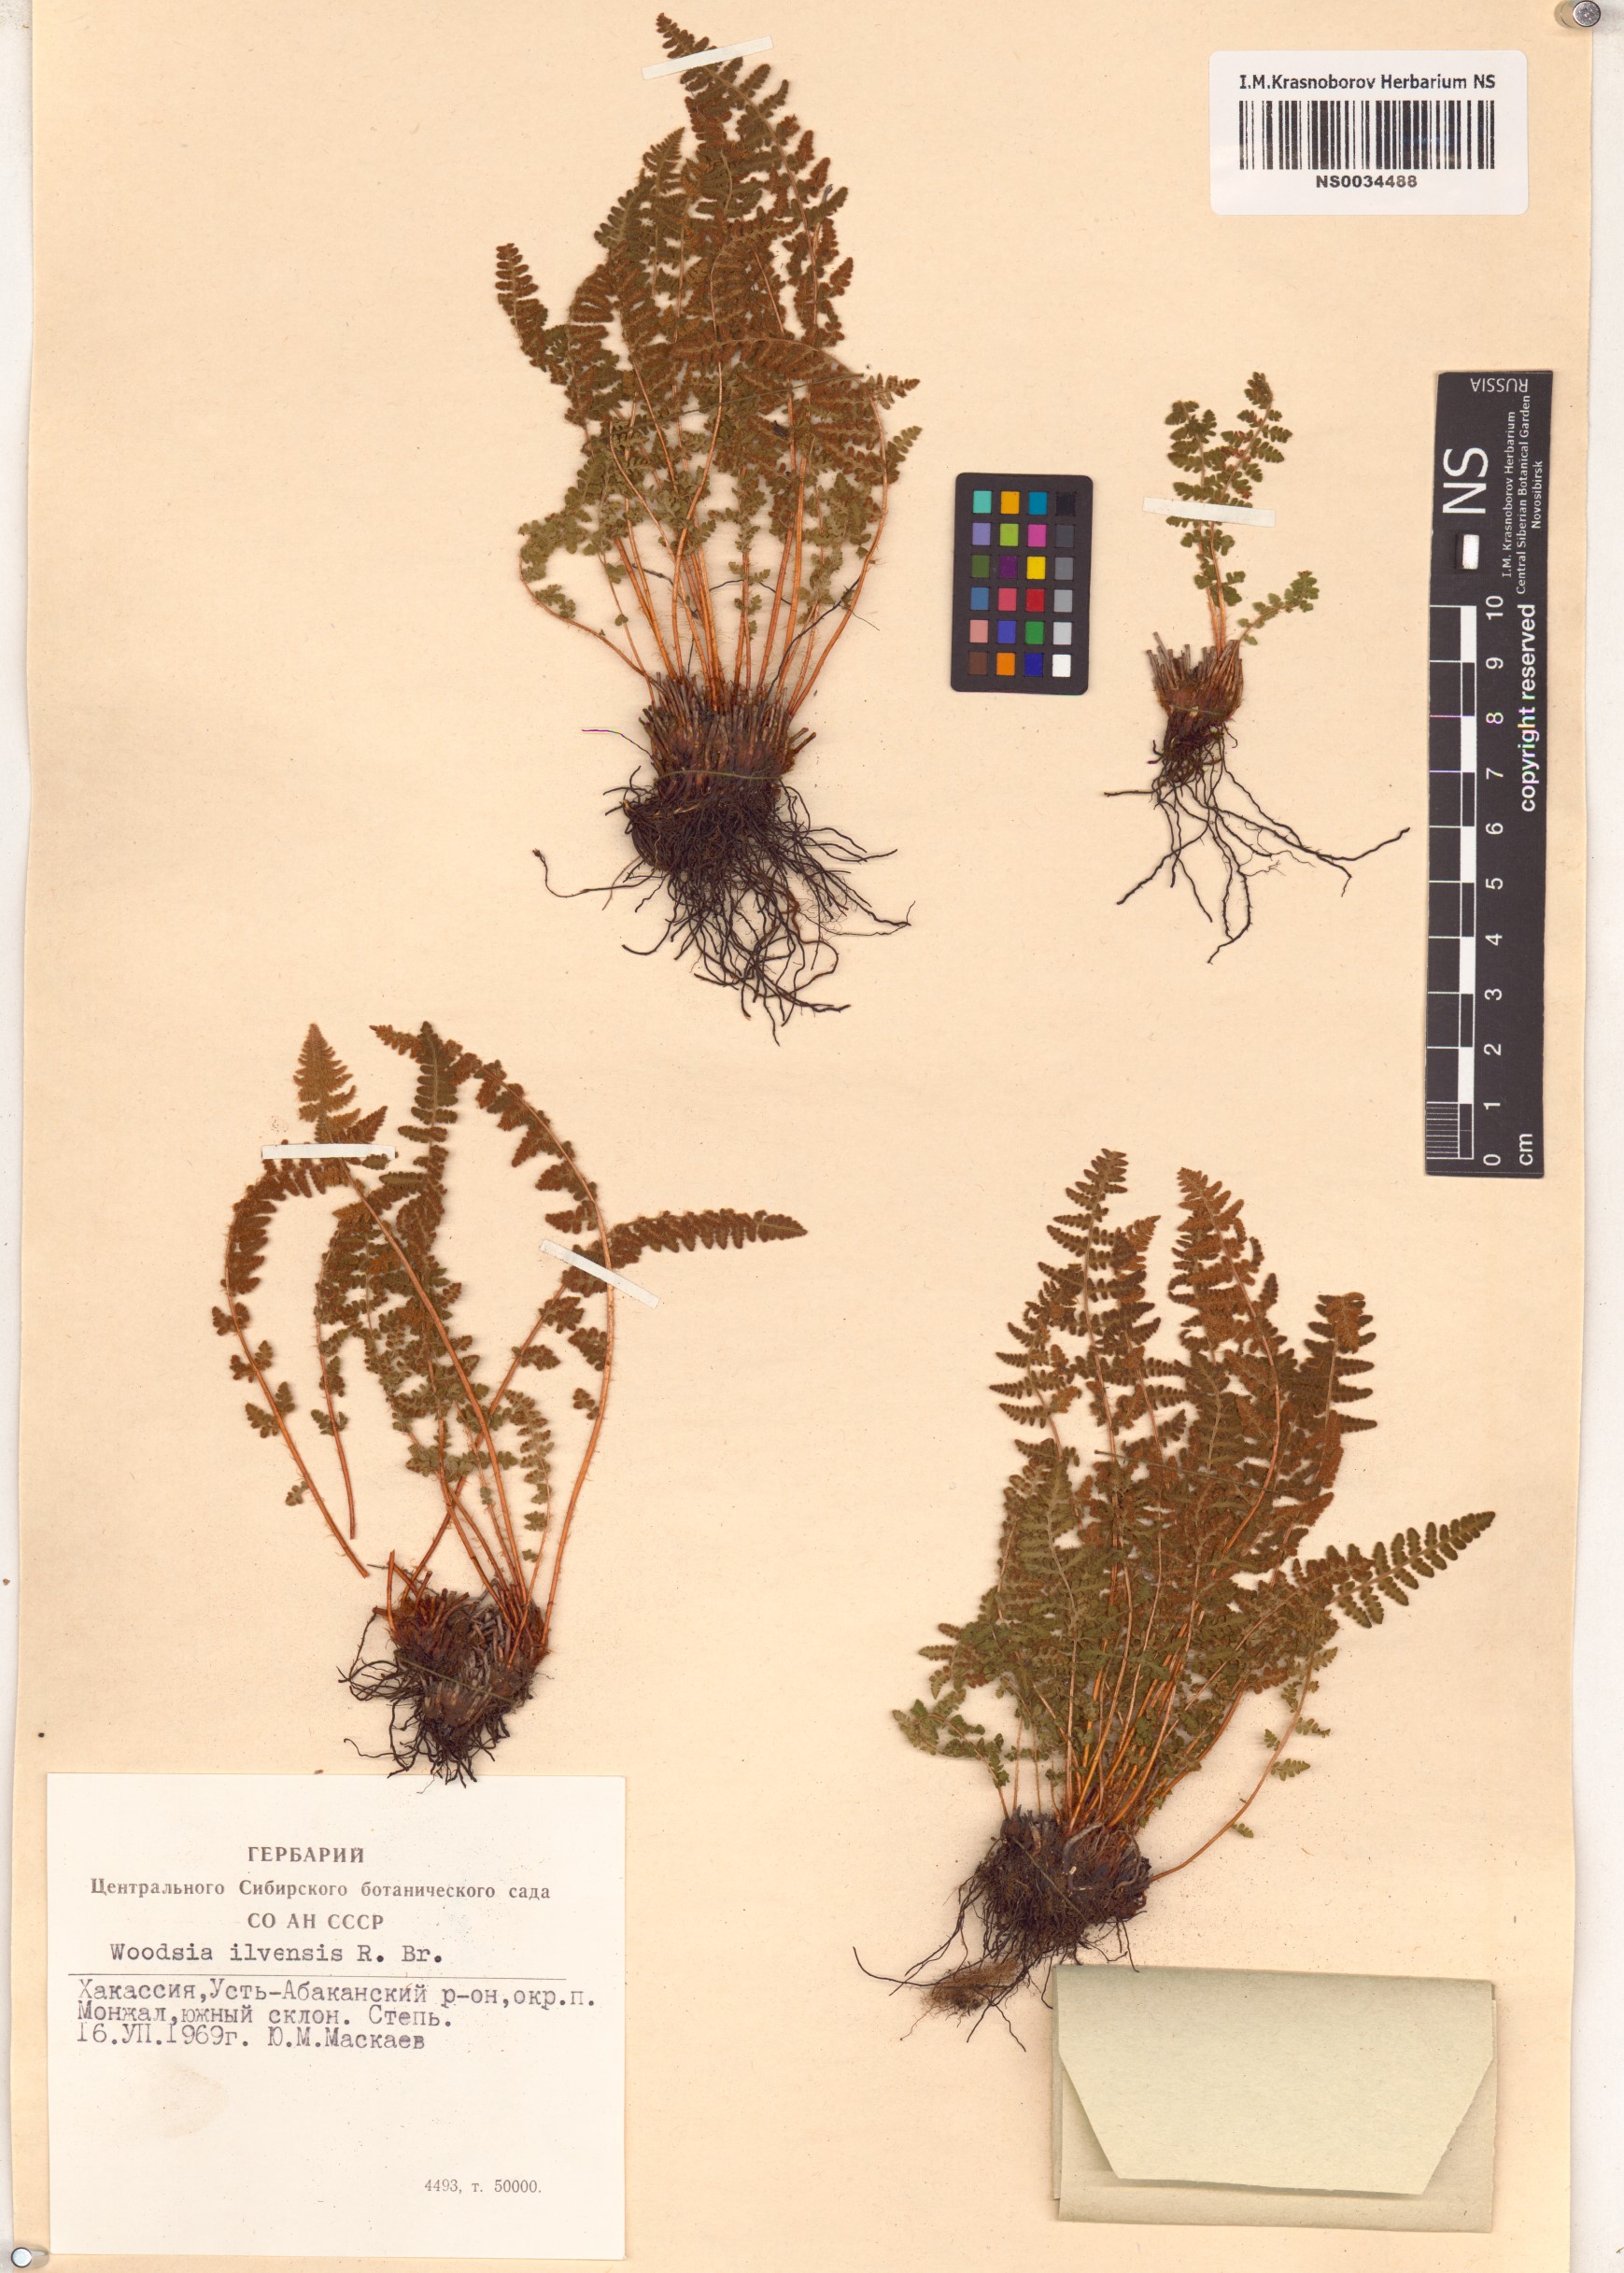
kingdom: Plantae
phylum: Tracheophyta
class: Polypodiopsida
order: Polypodiales
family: Woodsiaceae
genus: Woodsia
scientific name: Woodsia ilvensis
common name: Fragrant woodsia
